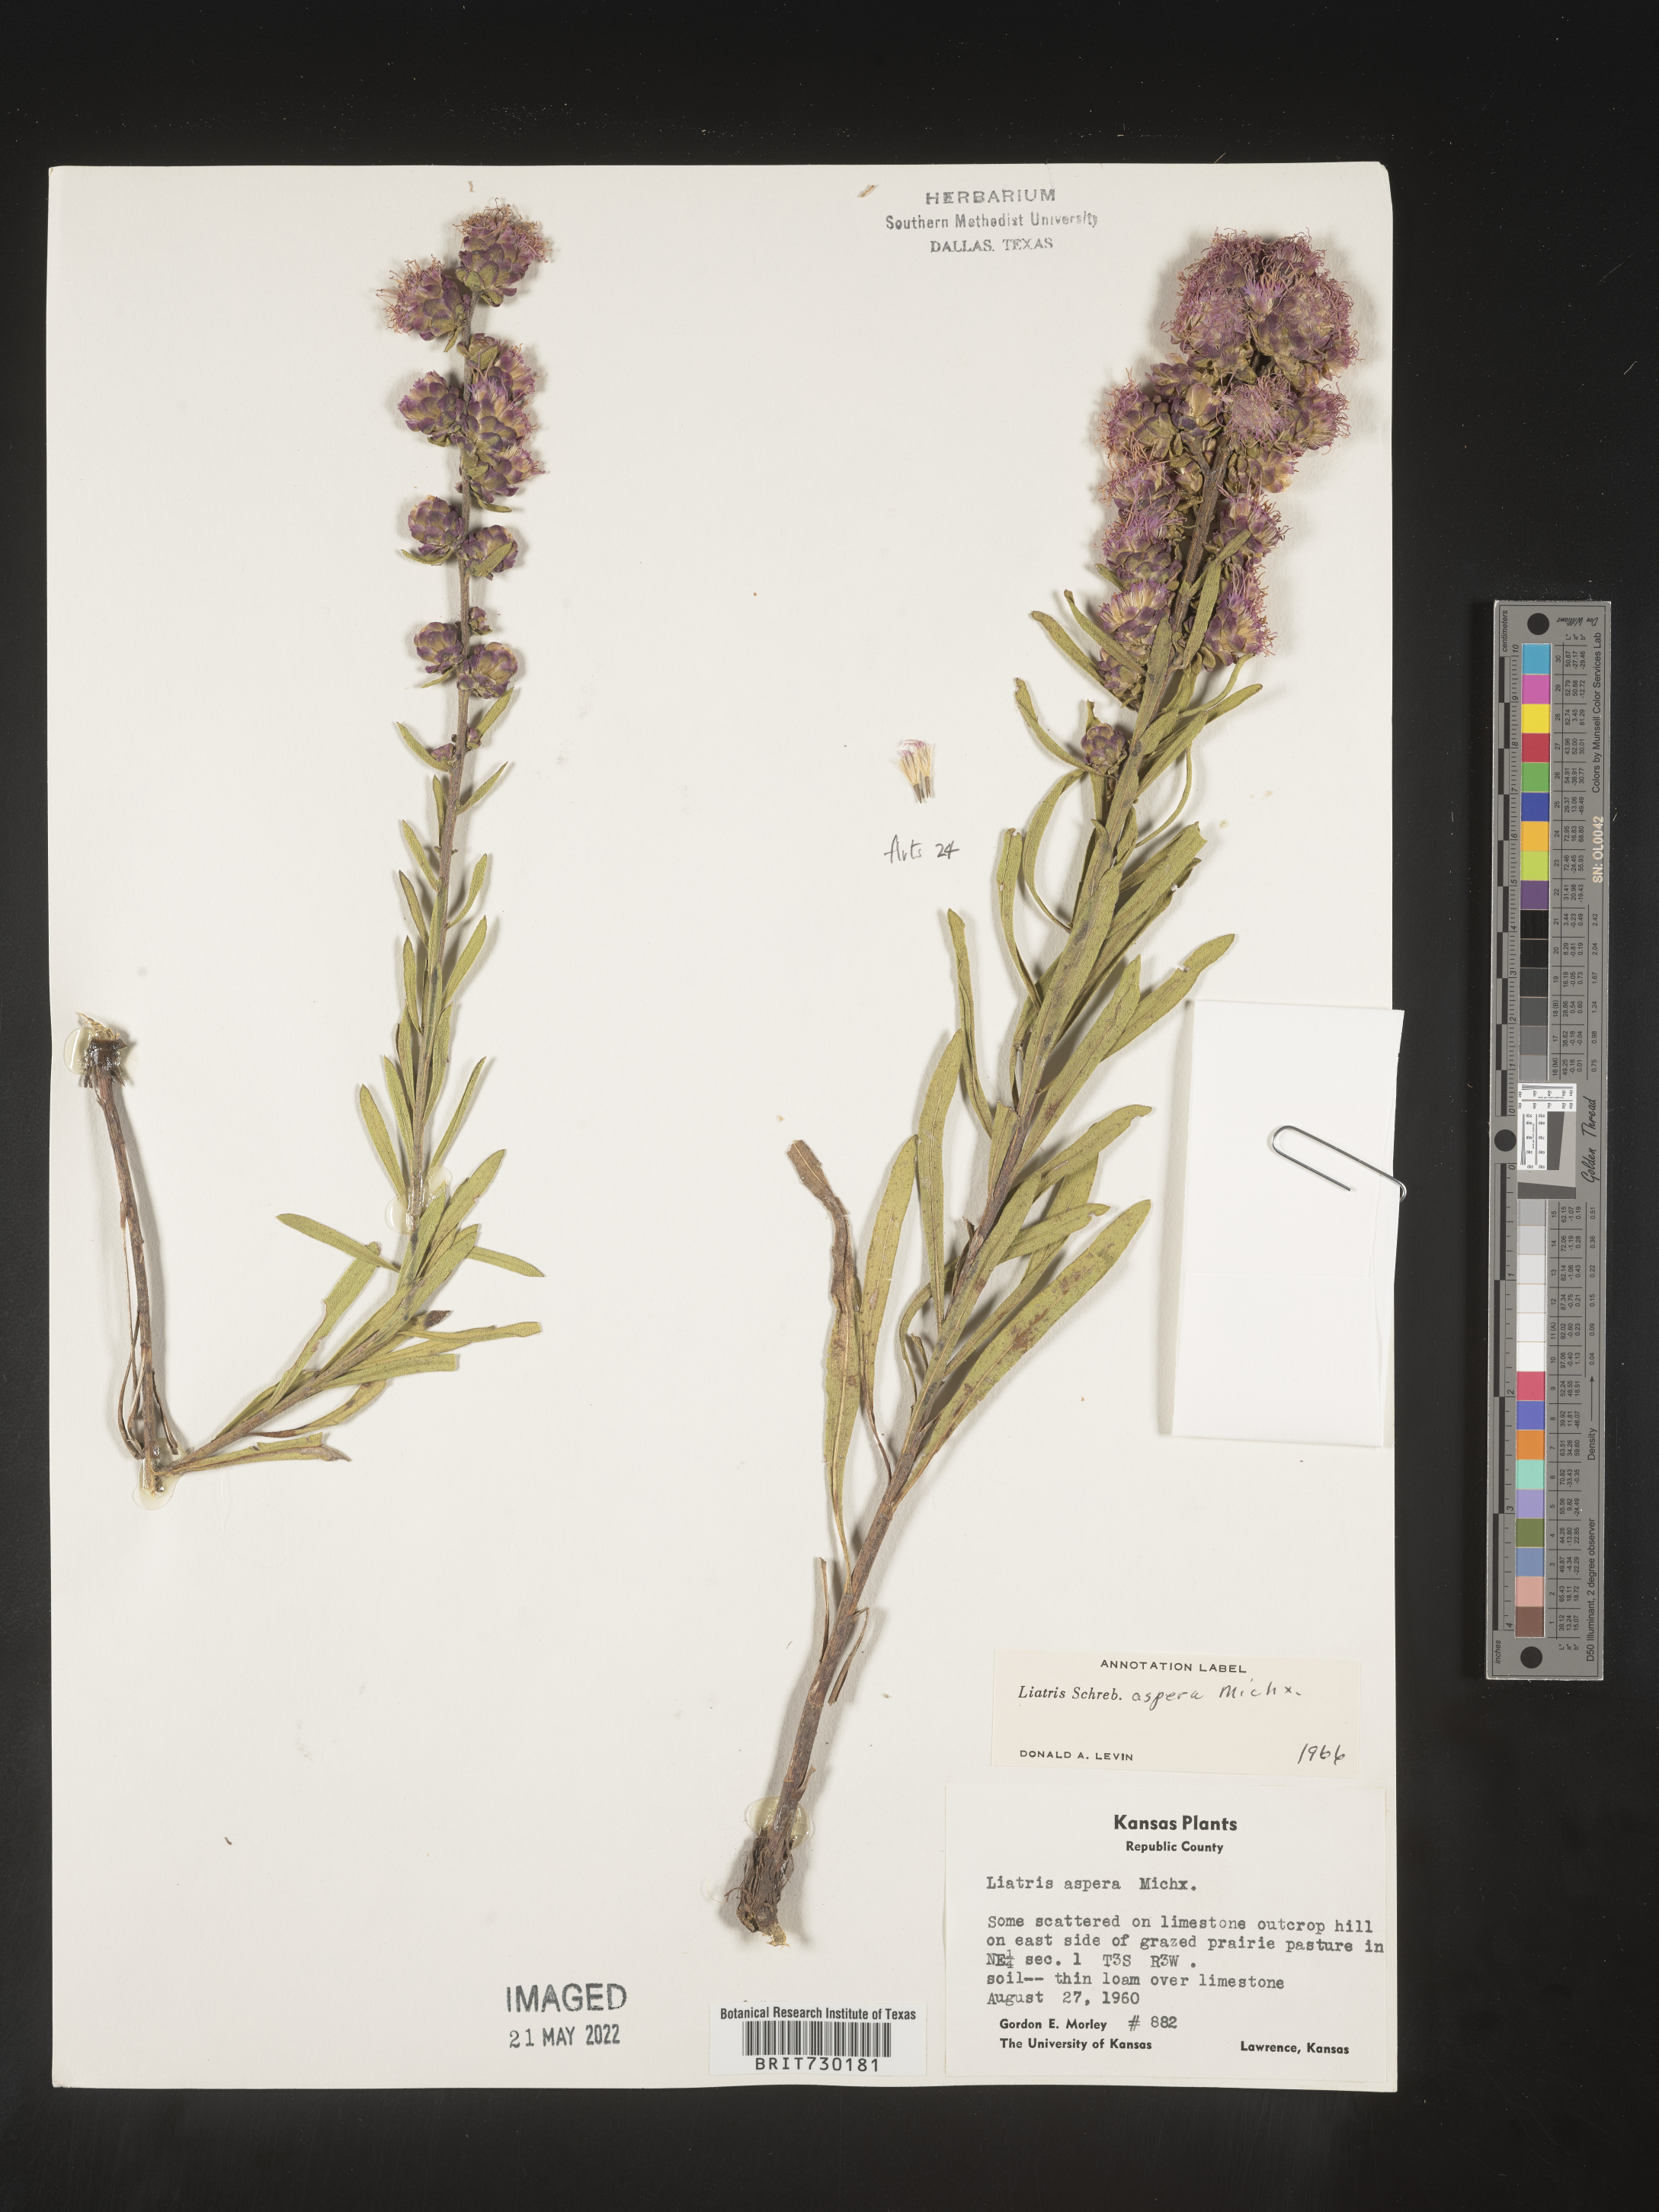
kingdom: Plantae
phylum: Tracheophyta
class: Magnoliopsida
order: Asterales
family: Asteraceae
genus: Liatris
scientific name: Liatris aspera
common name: Lacerate blazing-star
